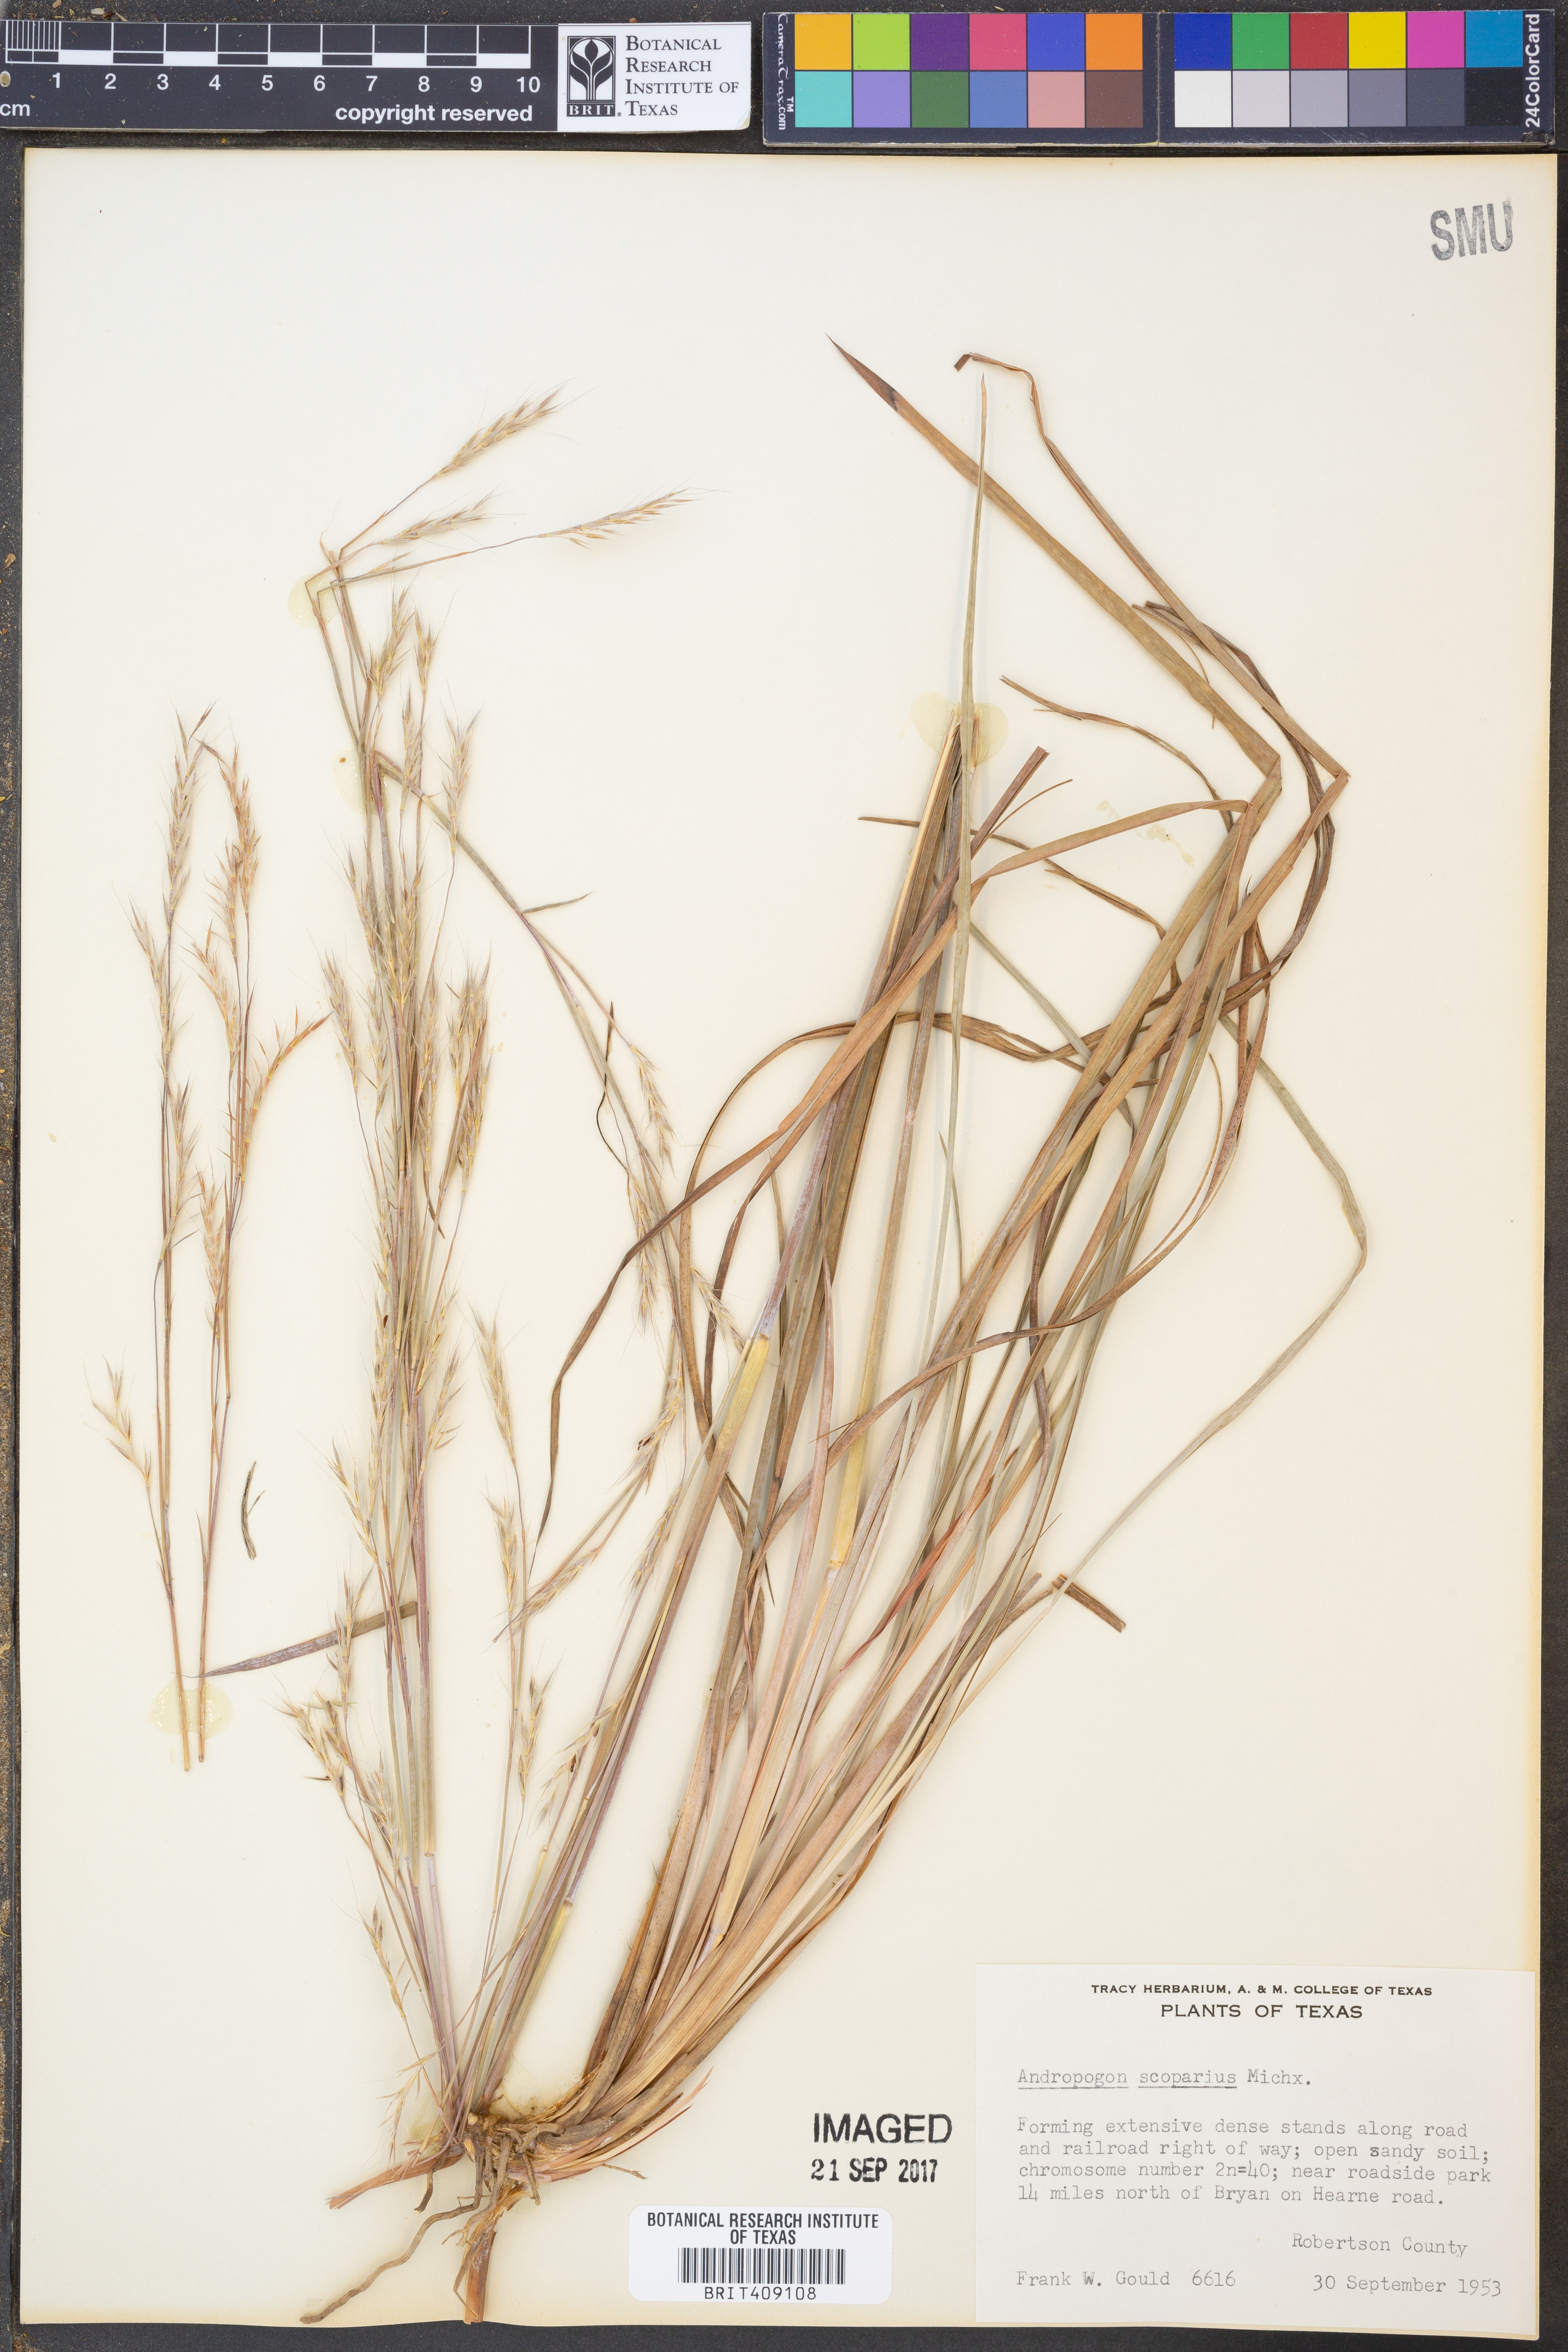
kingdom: Plantae
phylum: Tracheophyta
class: Liliopsida
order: Poales
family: Poaceae
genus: Schizachyrium
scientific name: Schizachyrium scoparium
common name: Little bluestem
